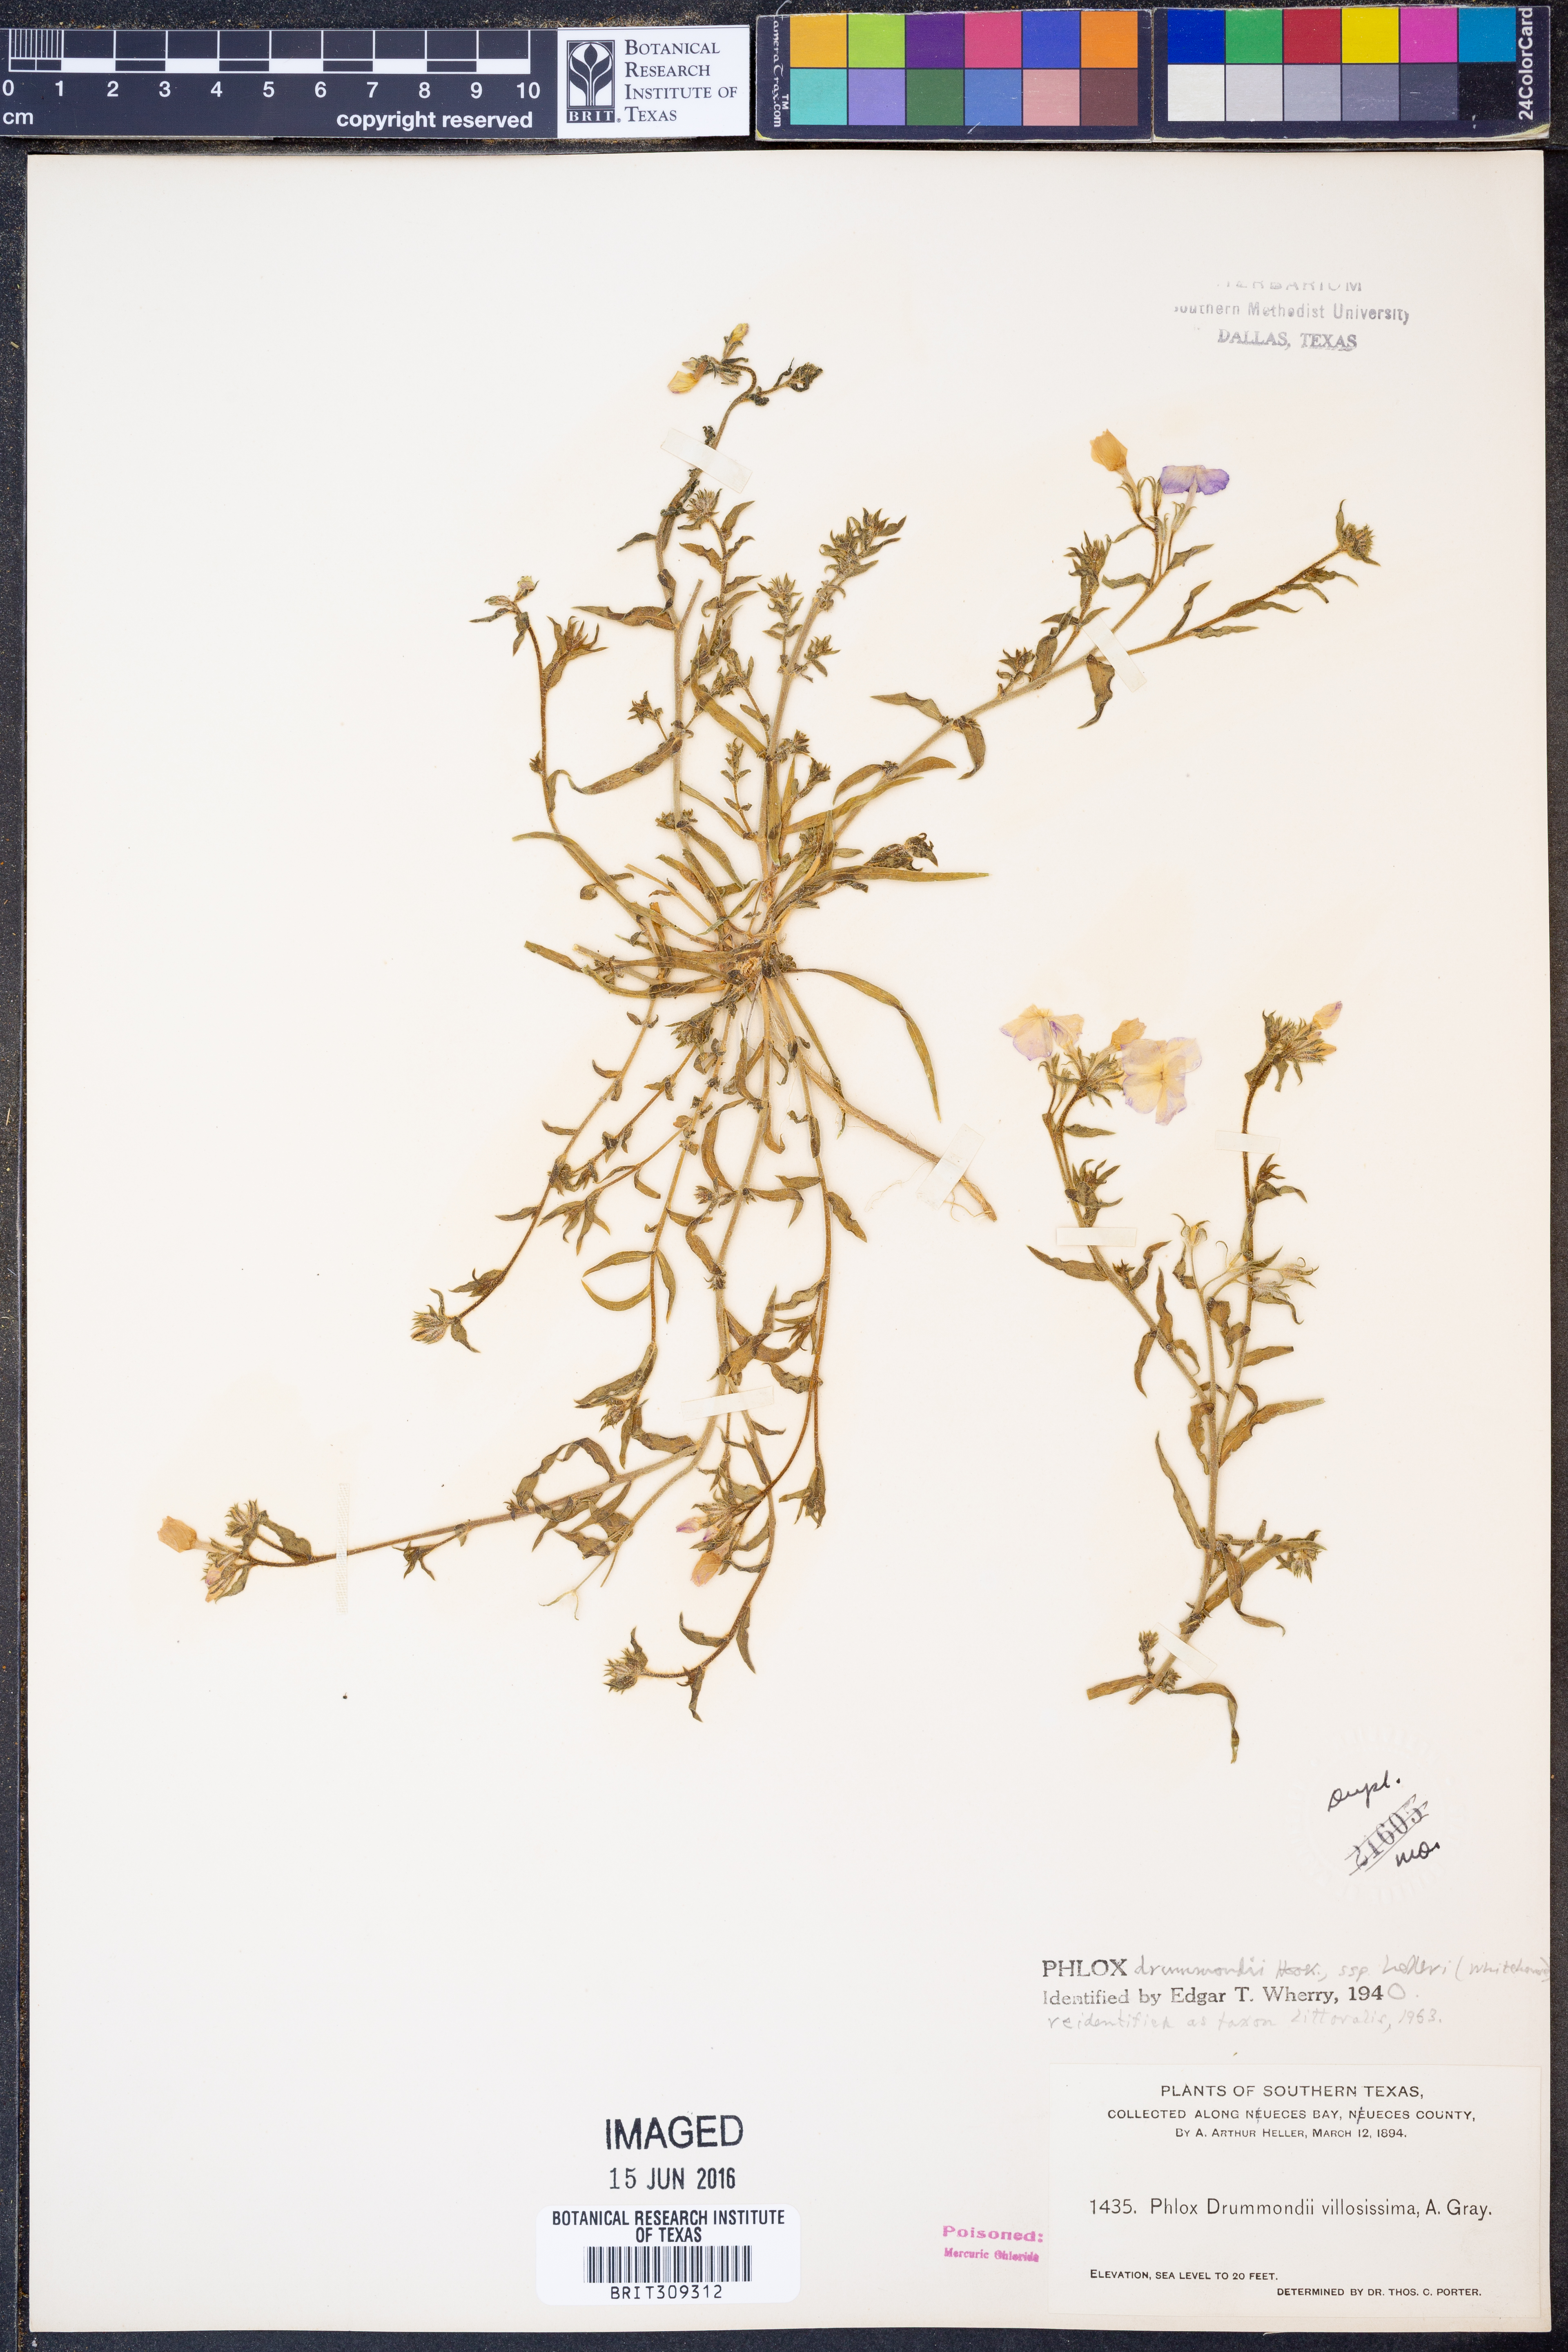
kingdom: Plantae
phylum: Tracheophyta
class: Magnoliopsida
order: Ericales
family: Polemoniaceae
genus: Phlox
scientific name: Phlox glabriflora
